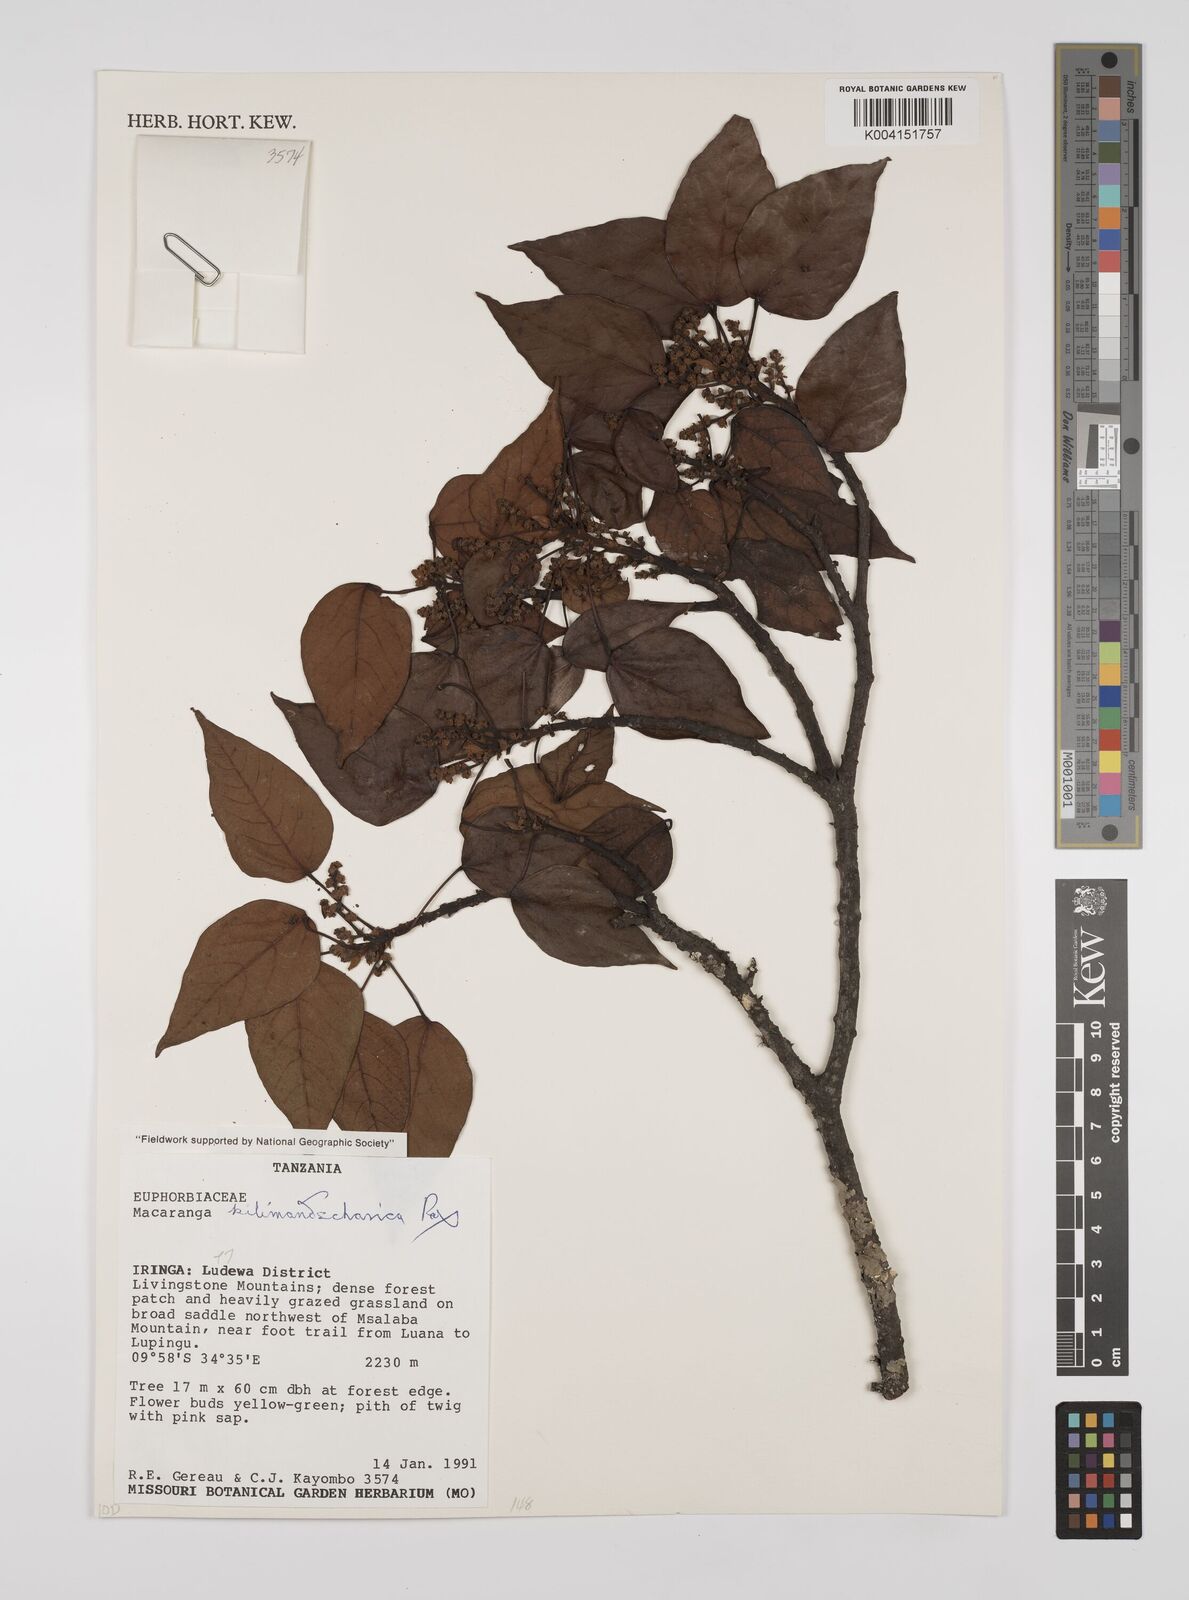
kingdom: Plantae
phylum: Tracheophyta
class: Magnoliopsida
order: Malpighiales
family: Euphorbiaceae
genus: Macaranga
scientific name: Macaranga kilimandscharica
